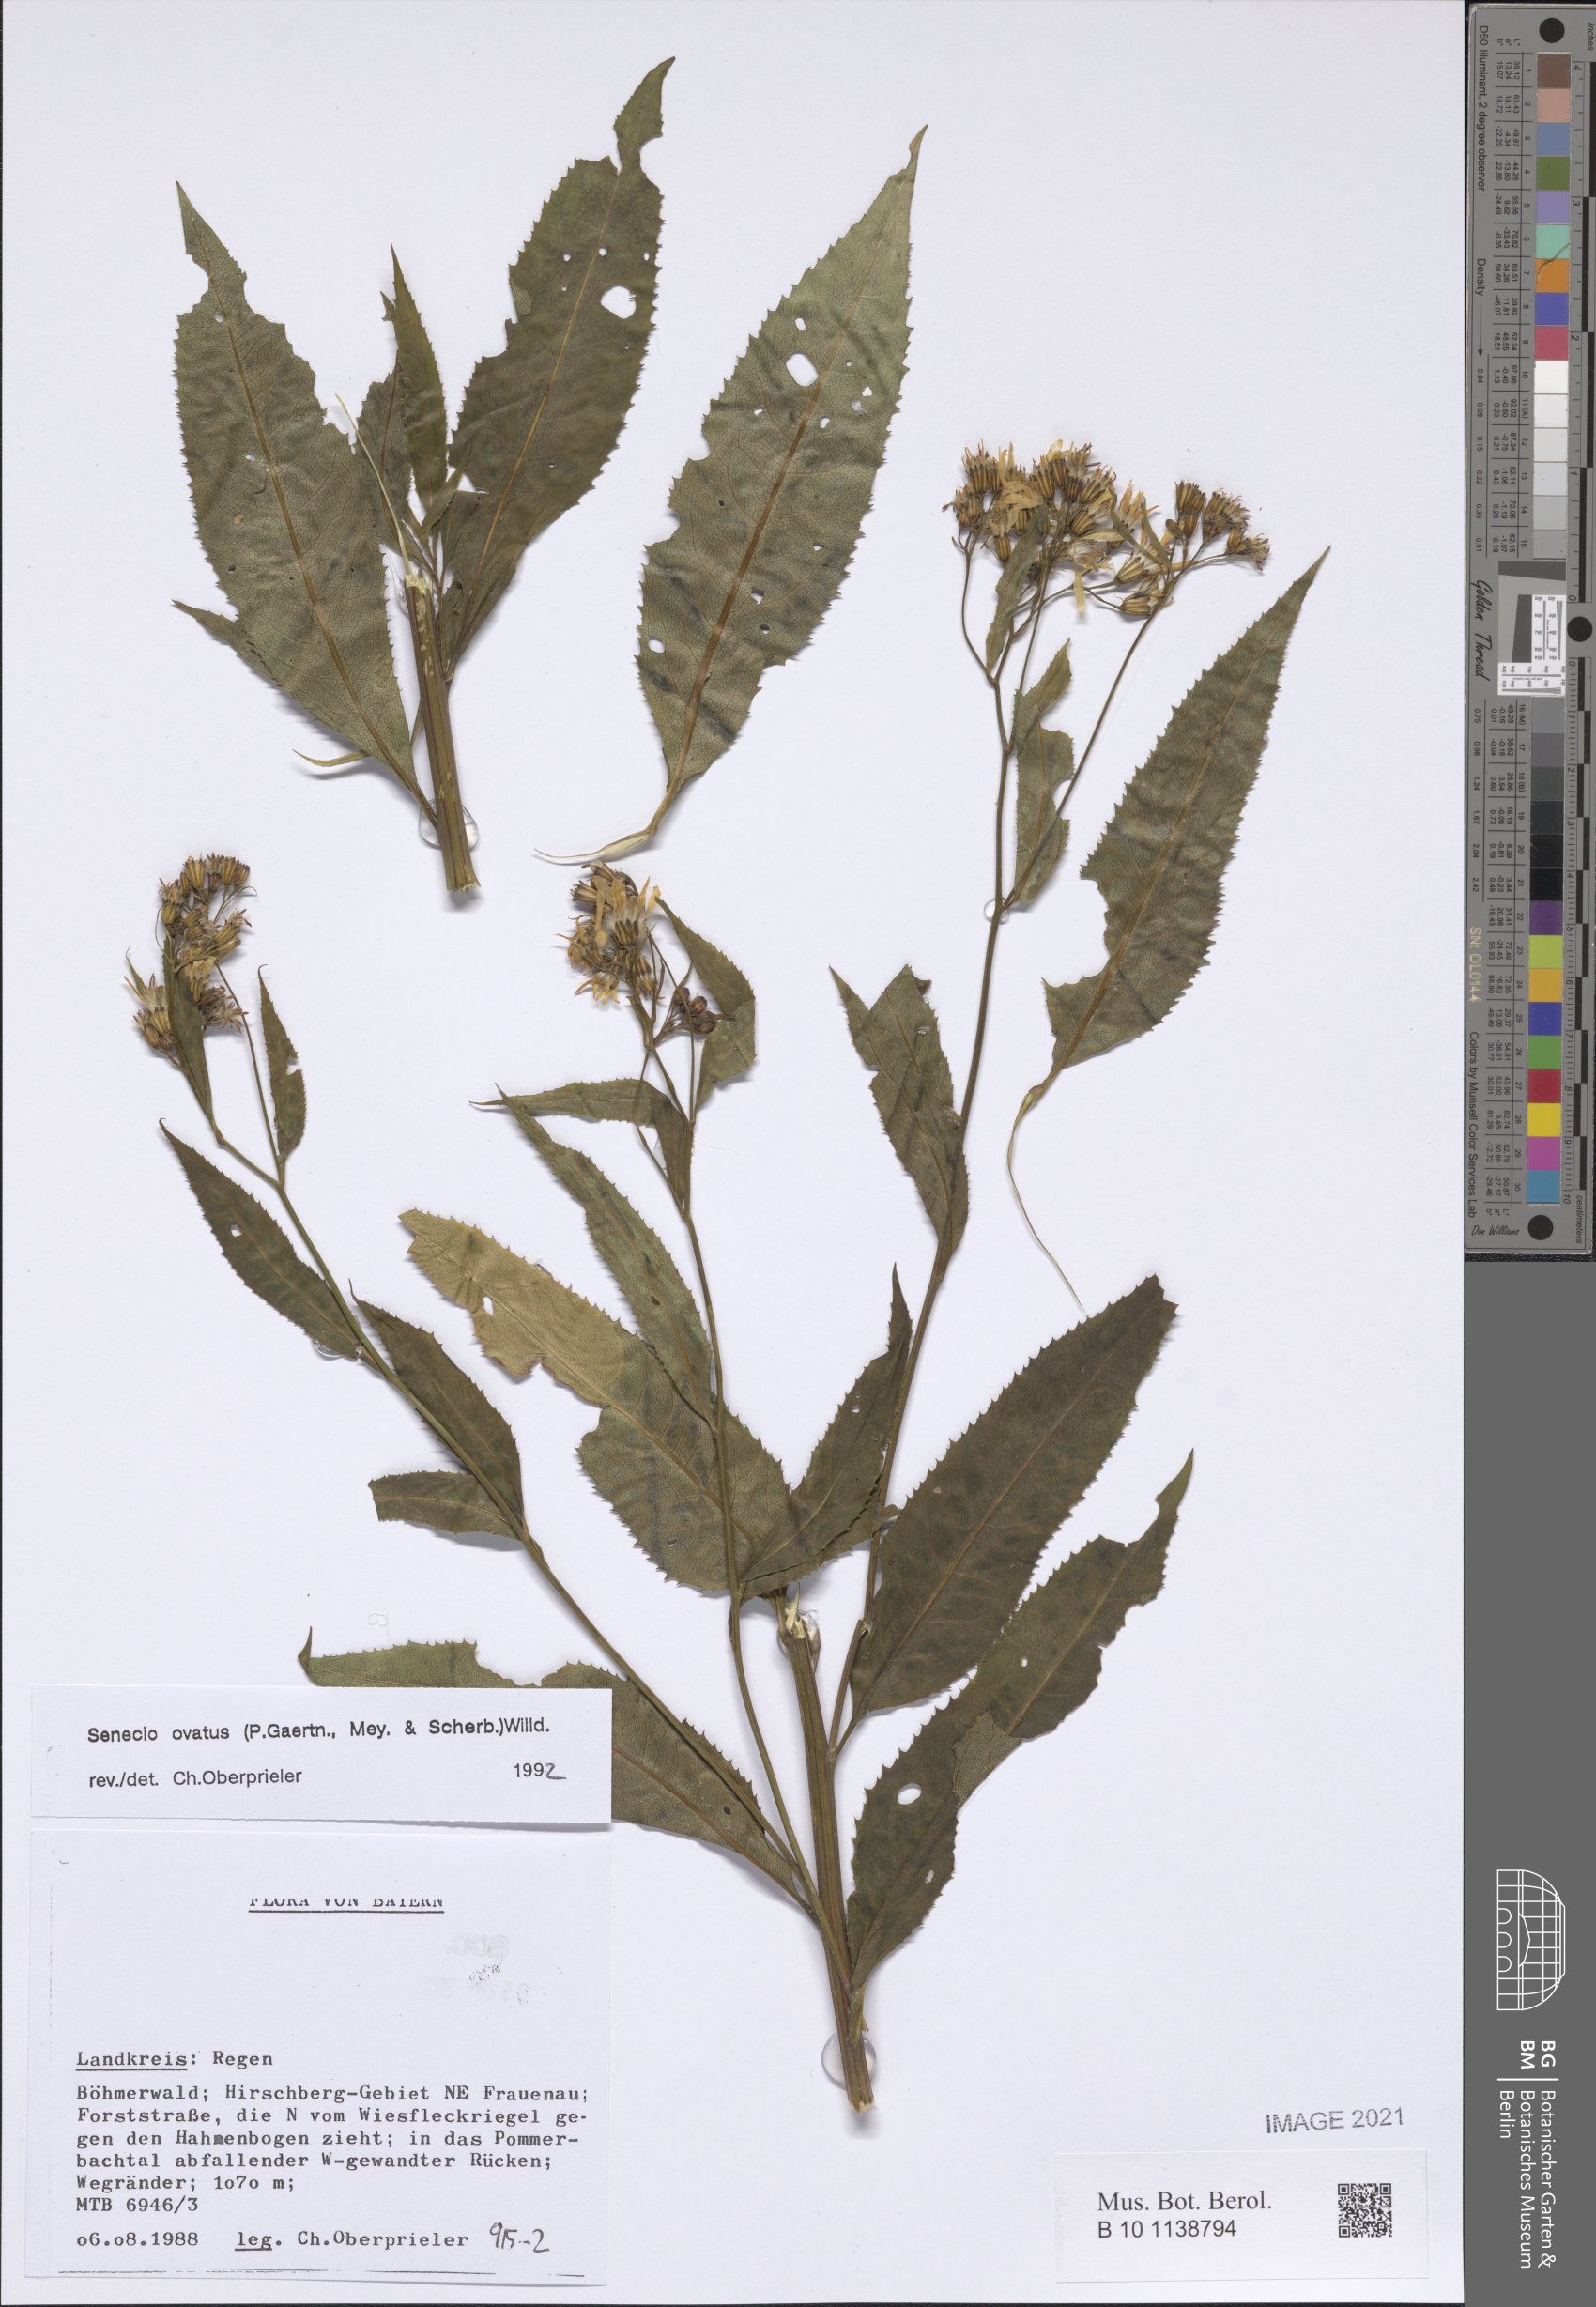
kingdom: Plantae
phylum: Tracheophyta
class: Magnoliopsida
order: Asterales
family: Asteraceae
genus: Senecio
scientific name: Senecio ovatus
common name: Wood ragwort
